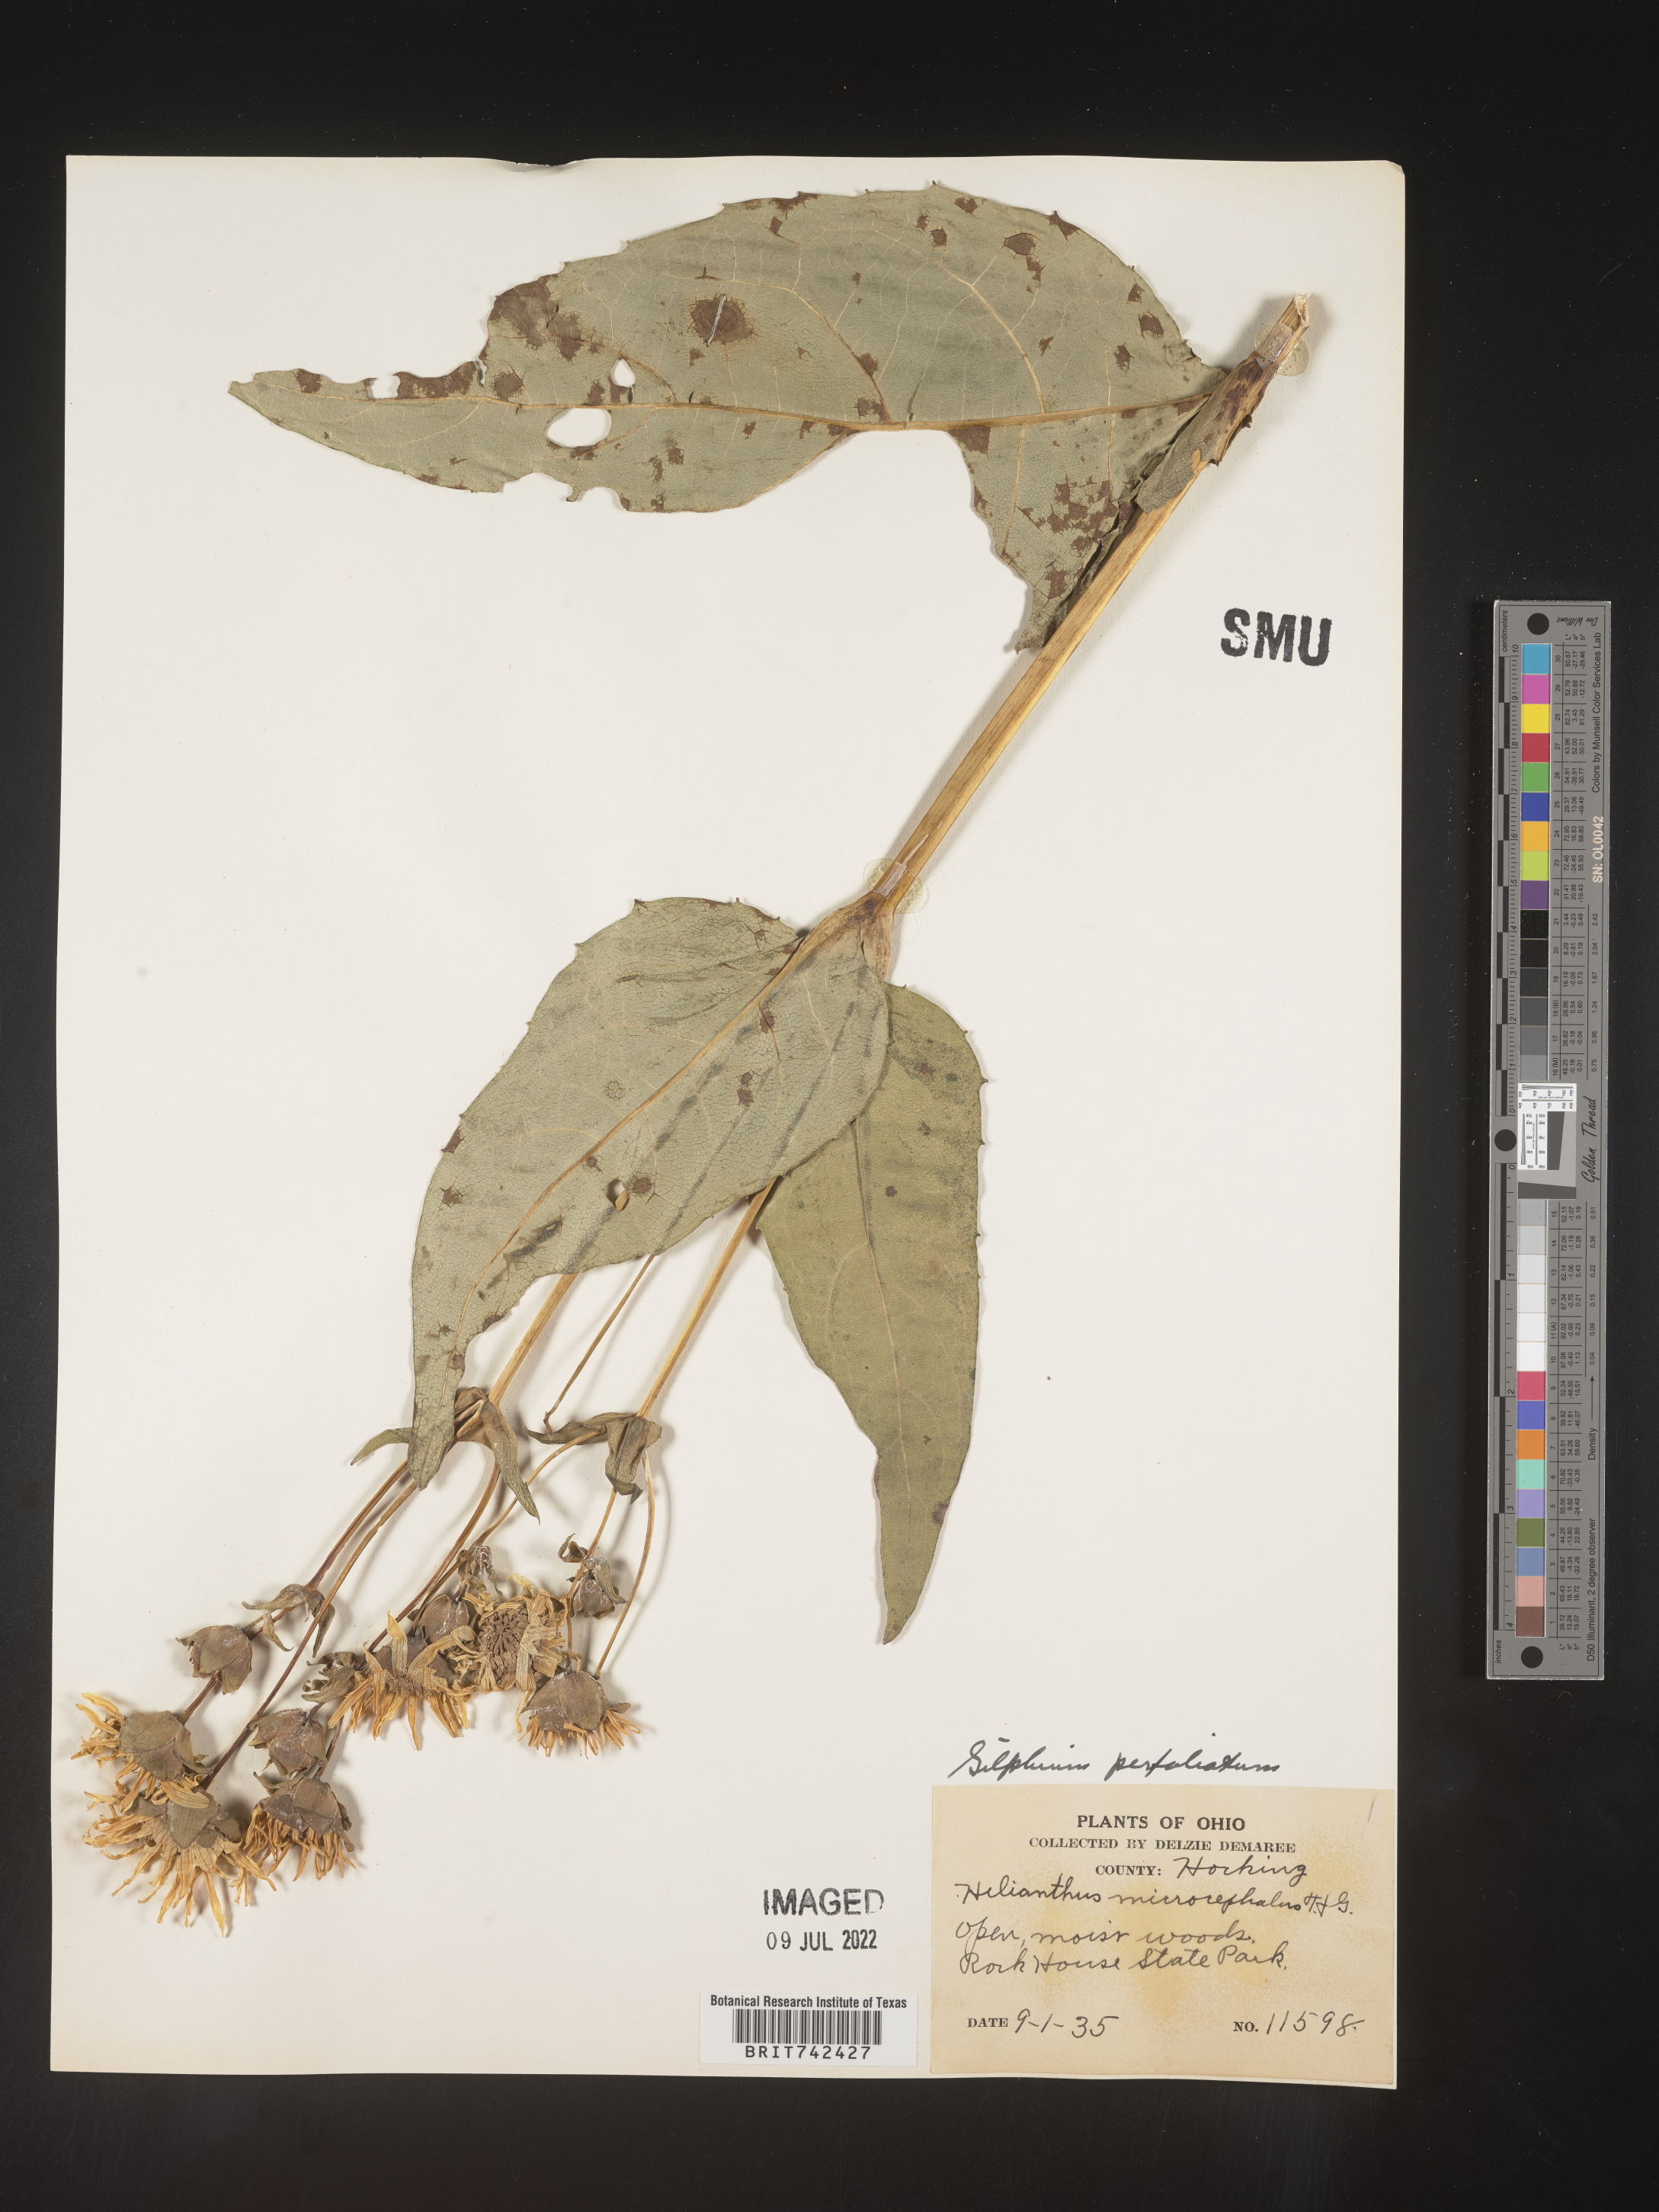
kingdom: Plantae
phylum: Tracheophyta
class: Magnoliopsida
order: Asterales
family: Asteraceae
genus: Silphium
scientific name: Silphium perfoliatum
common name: Cup-plant
